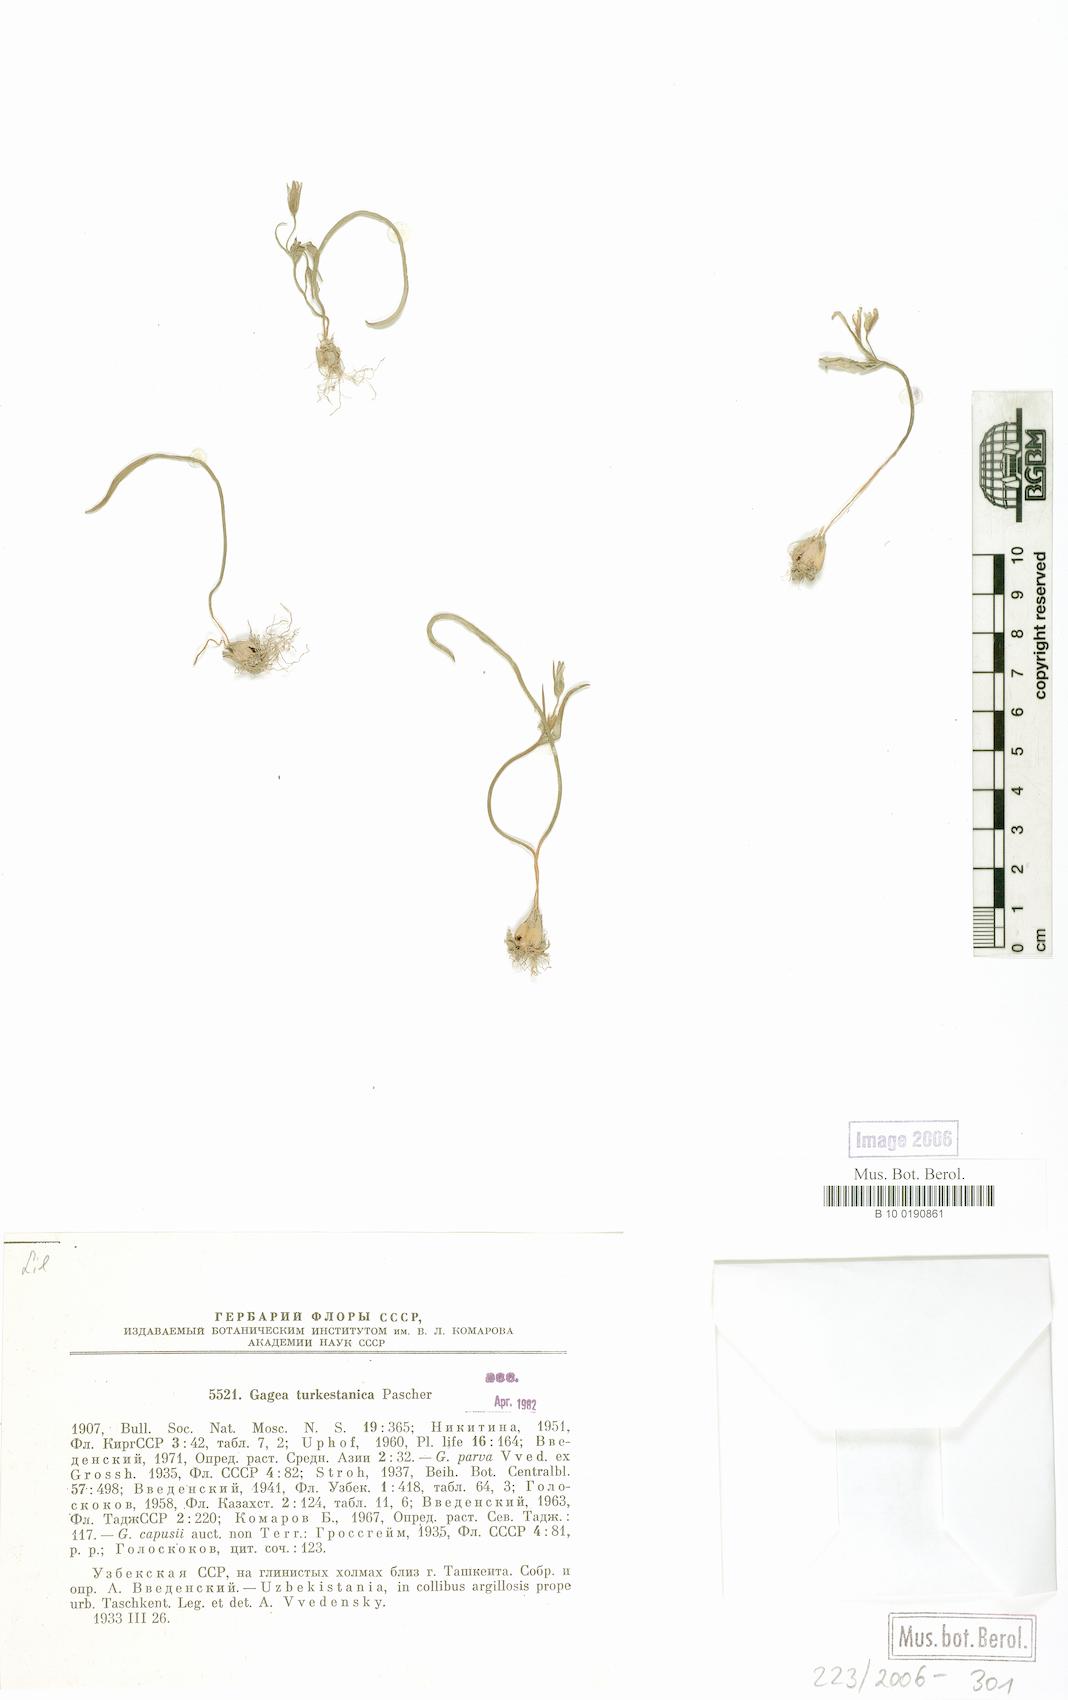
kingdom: Plantae
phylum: Tracheophyta
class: Liliopsida
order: Liliales
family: Liliaceae
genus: Gagea
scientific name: Gagea capusii
